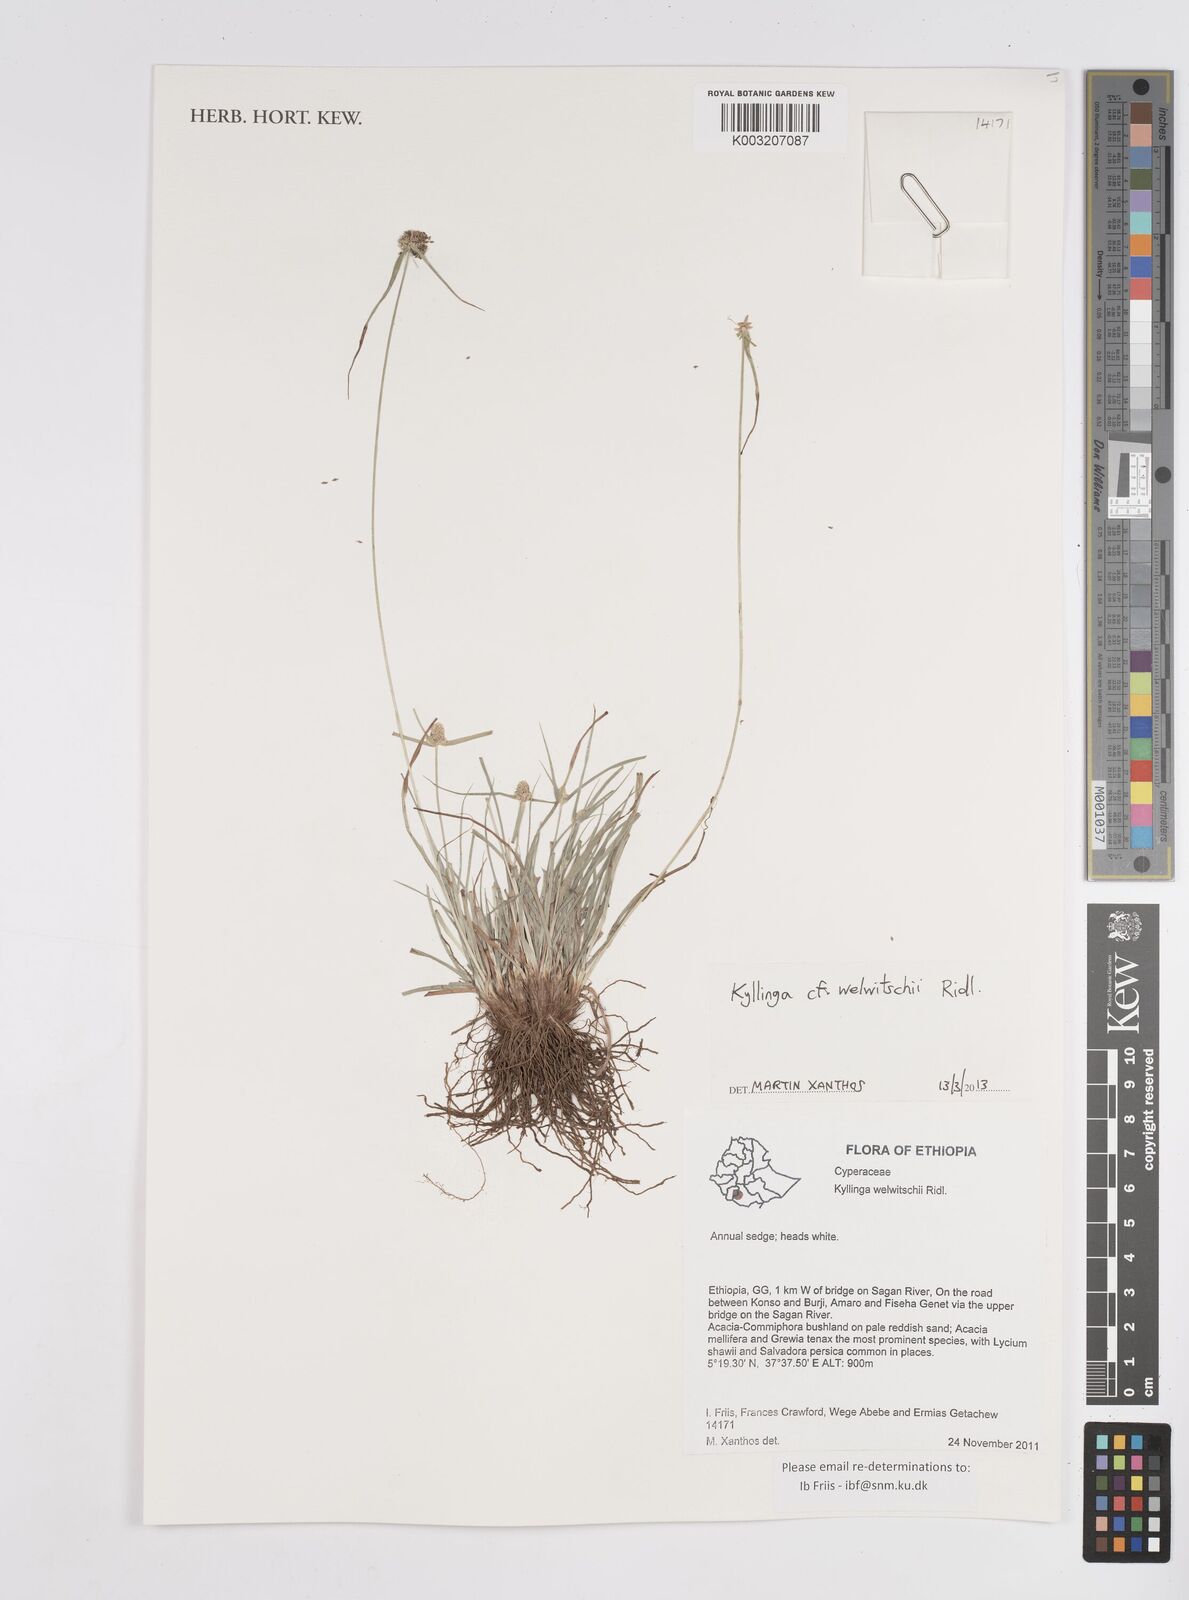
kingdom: Plantae
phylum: Tracheophyta
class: Liliopsida
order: Poales
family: Cyperaceae
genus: Cyperus
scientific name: Cyperus welwitschii
